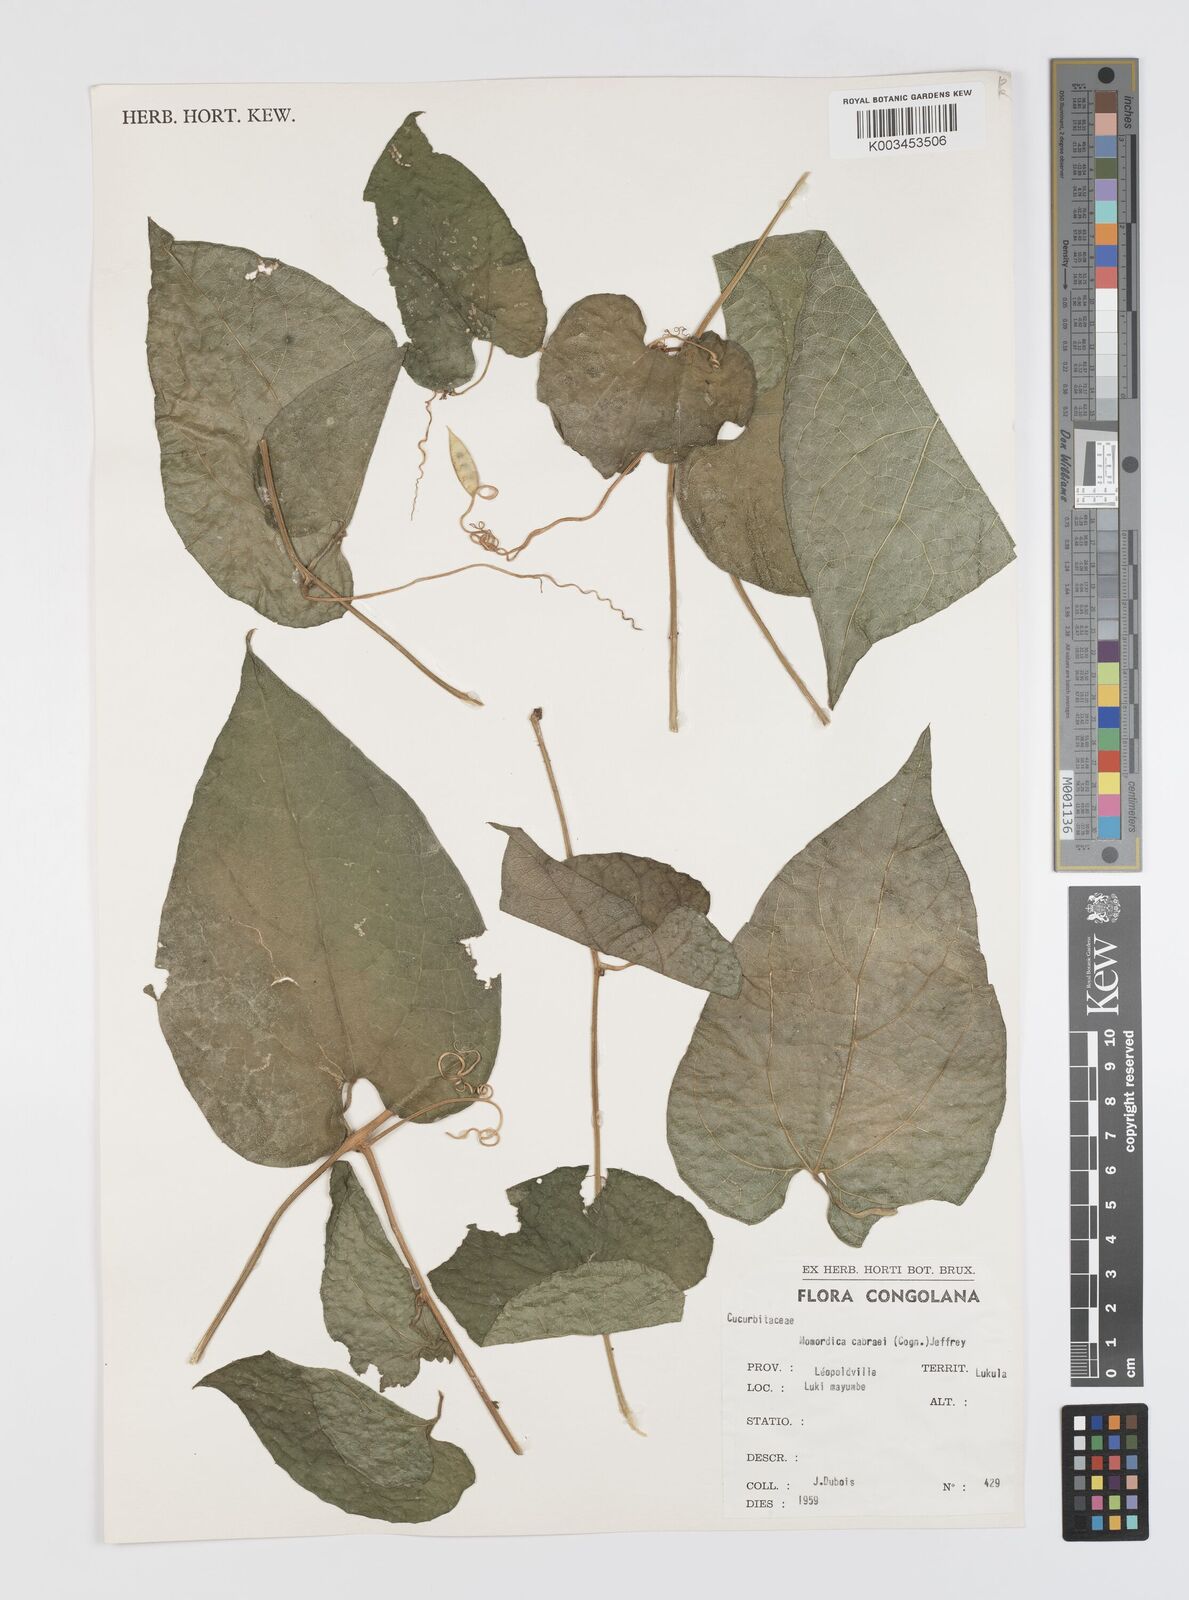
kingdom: Plantae
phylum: Tracheophyta
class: Magnoliopsida
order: Cucurbitales
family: Cucurbitaceae
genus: Momordica
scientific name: Momordica cabrae
